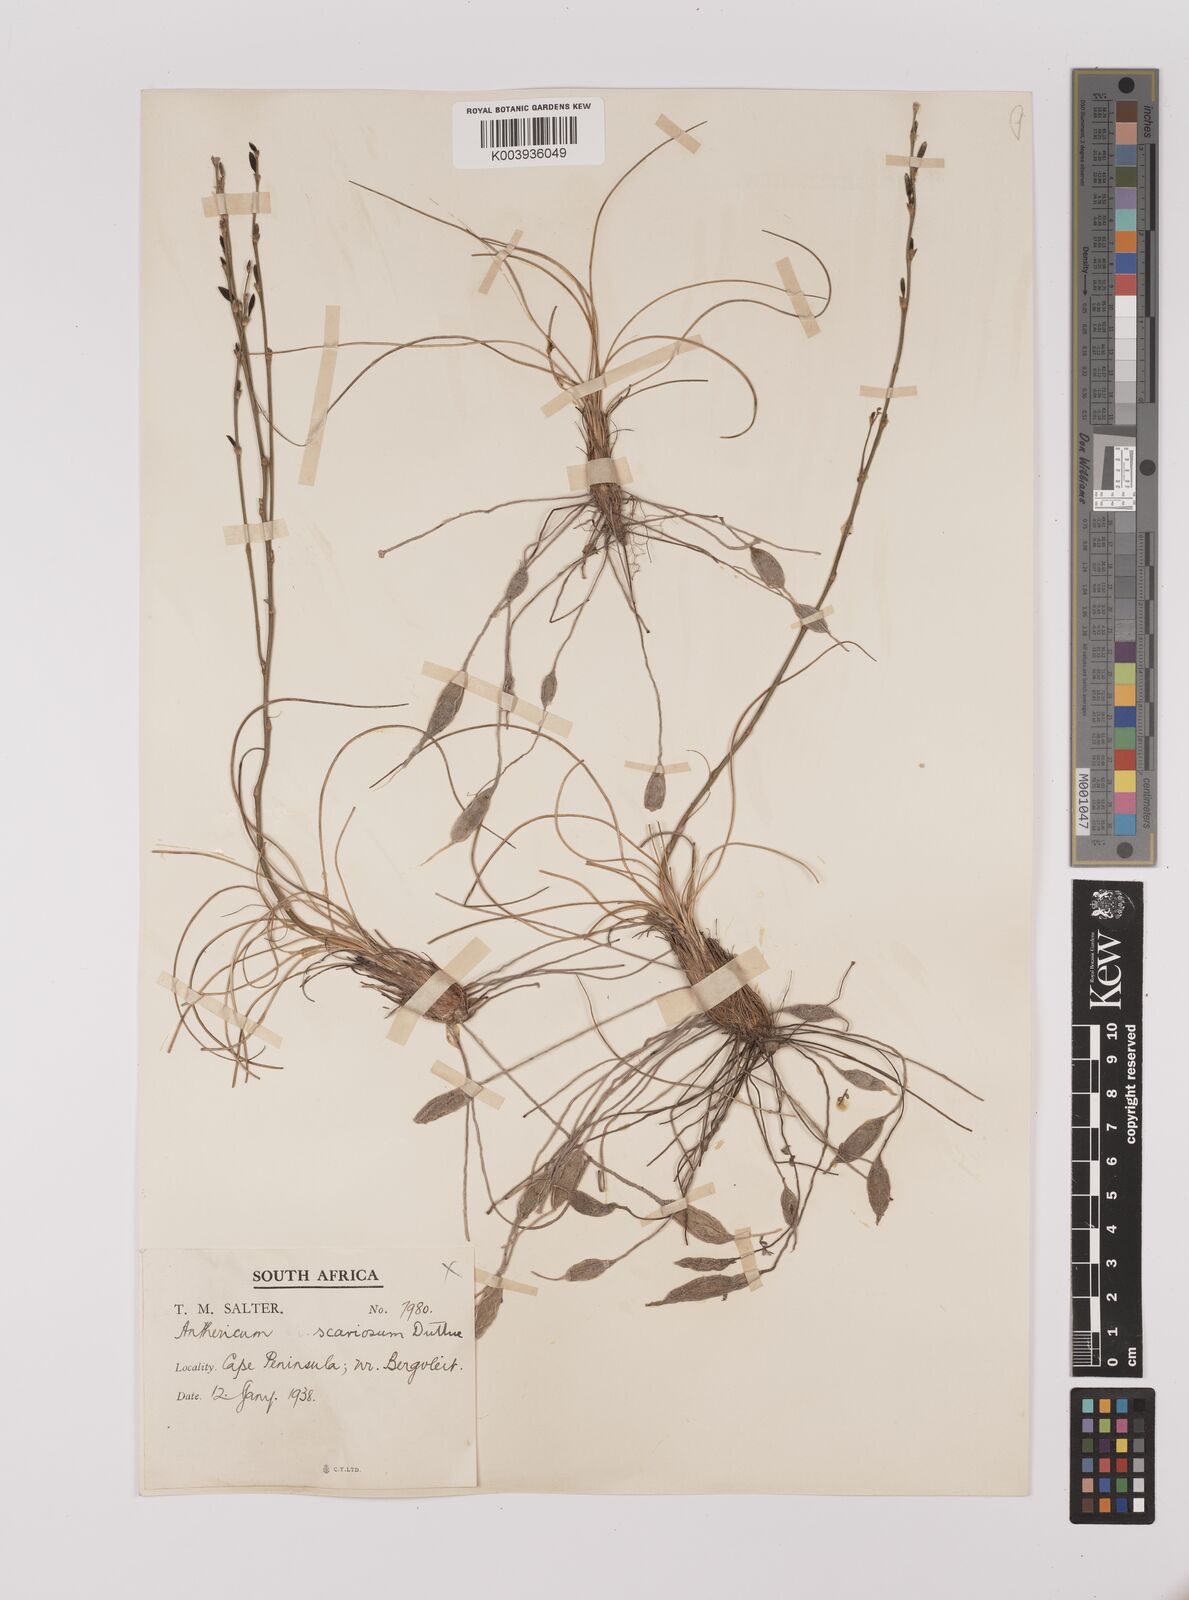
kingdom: Plantae
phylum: Tracheophyta
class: Liliopsida
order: Asparagales
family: Asparagaceae
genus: Chlorophytum
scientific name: Chlorophytum rangei
